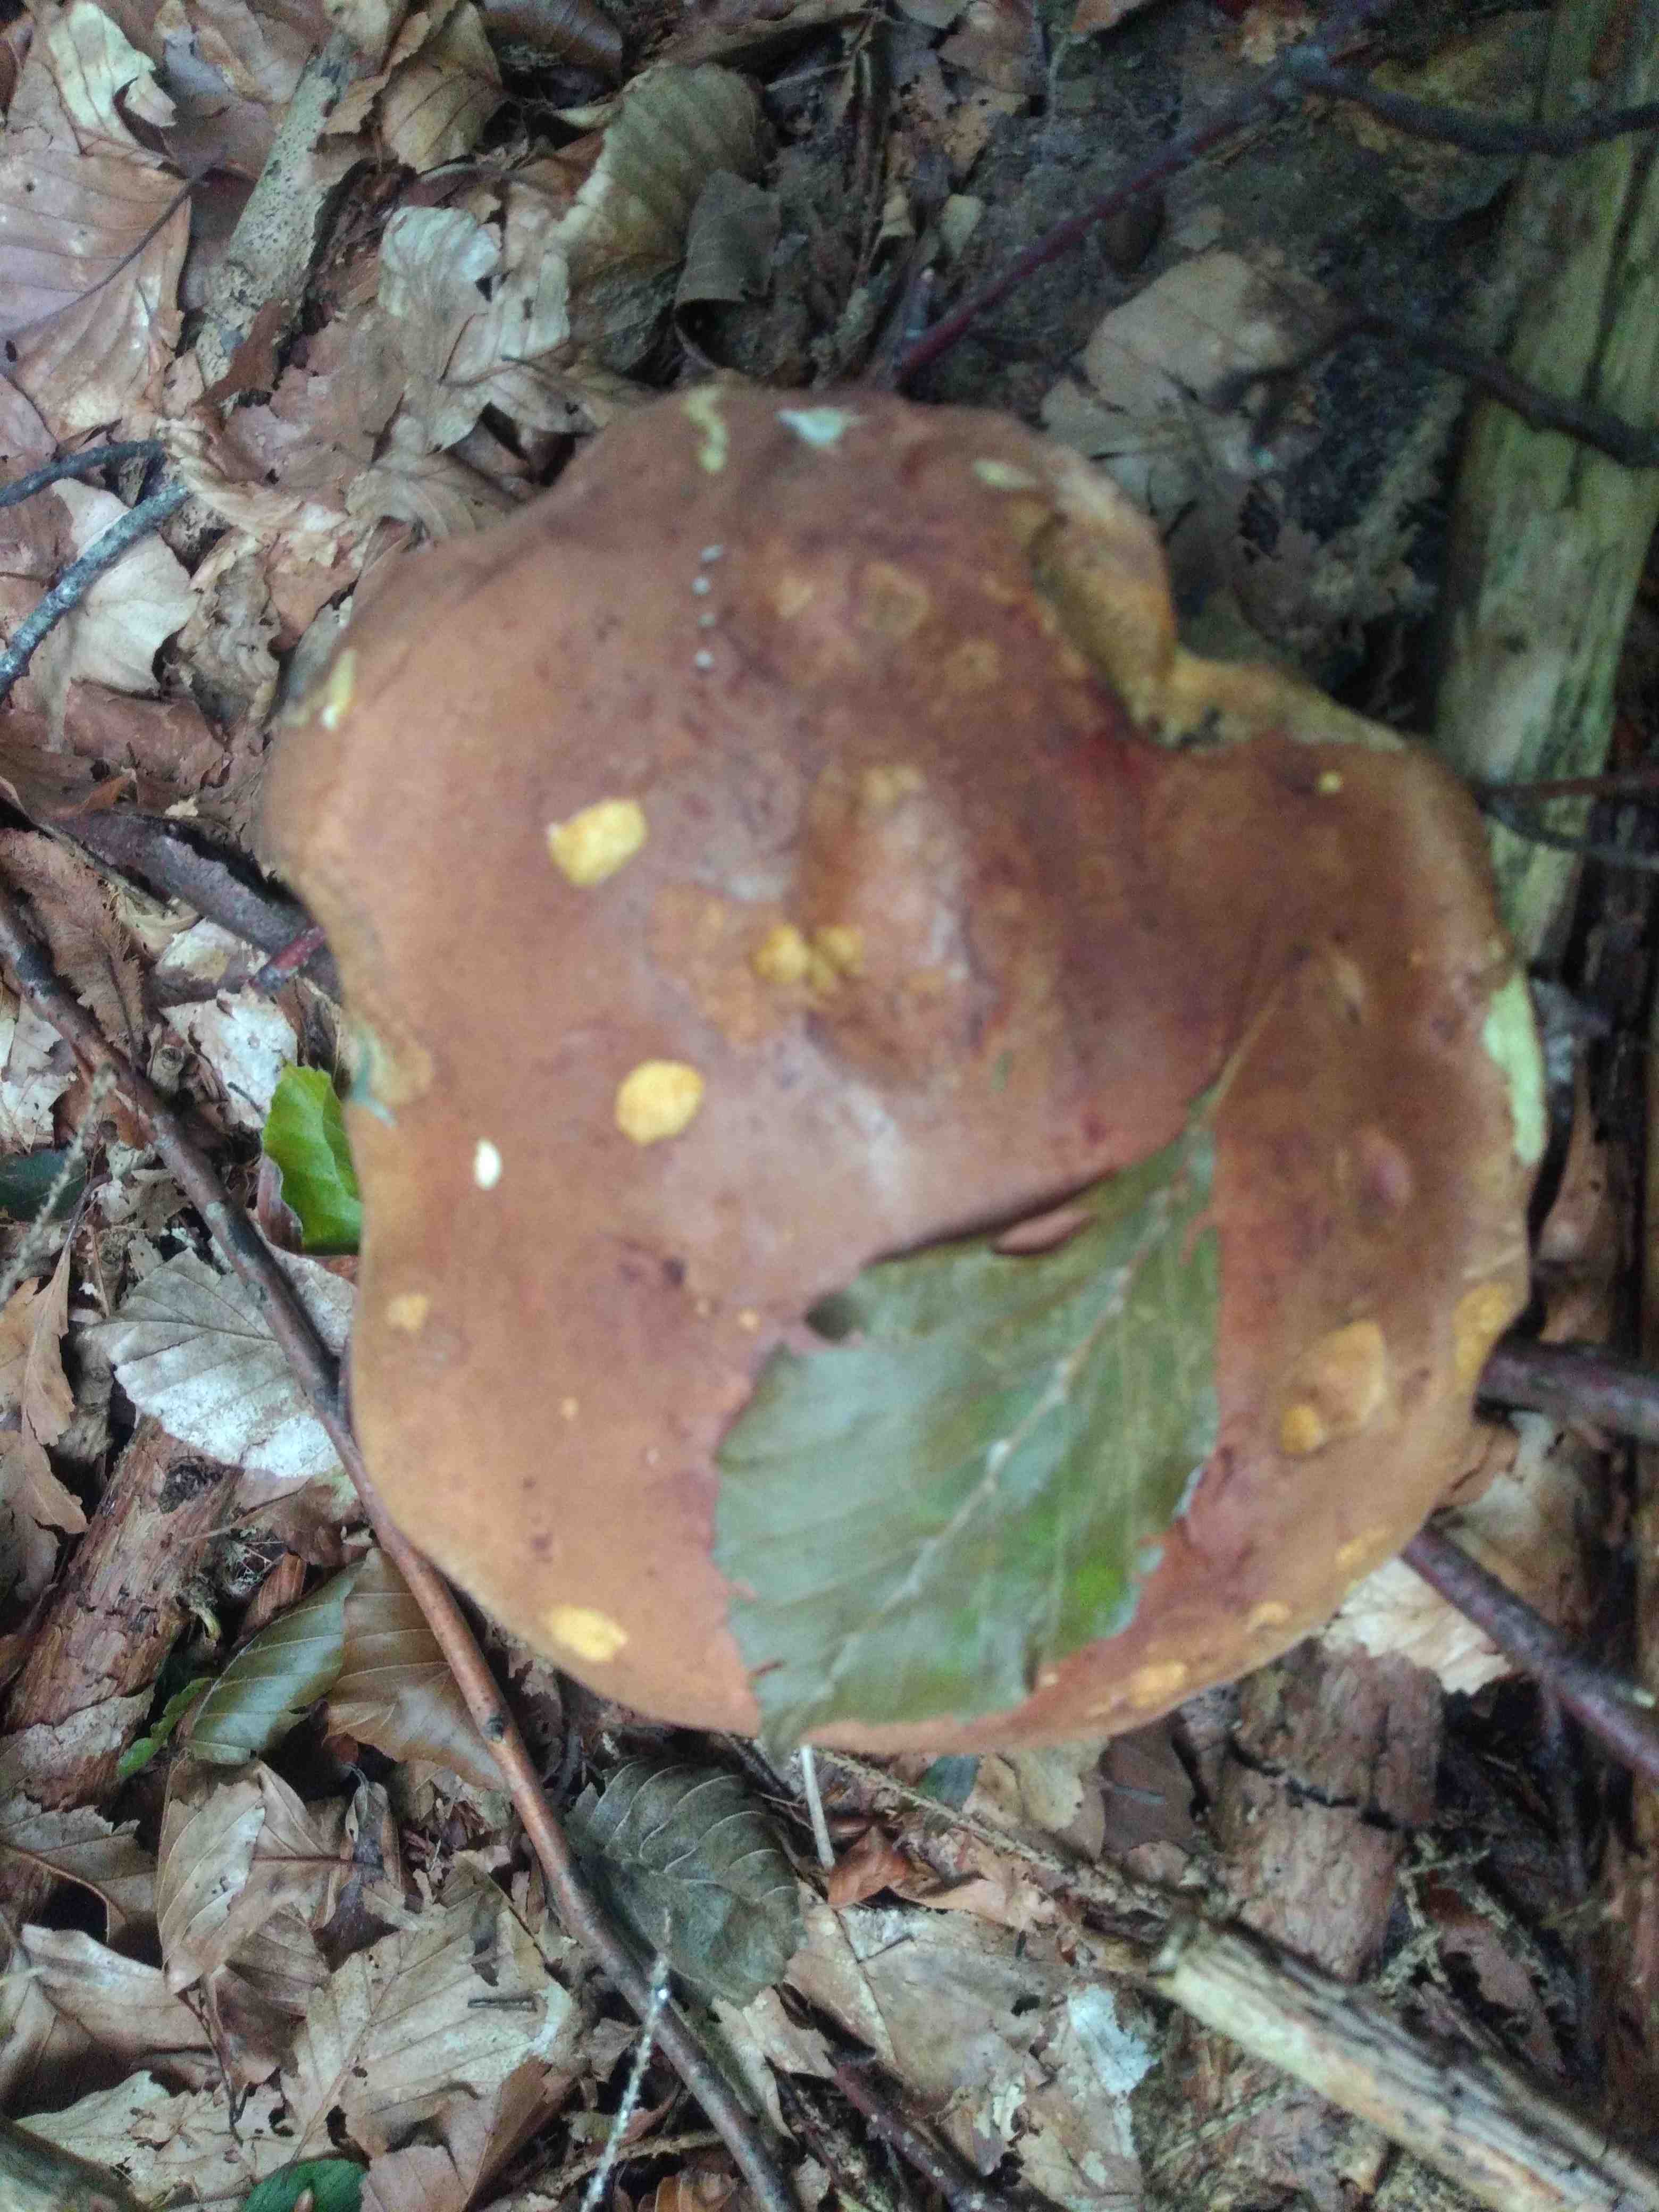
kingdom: Fungi
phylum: Basidiomycota
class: Agaricomycetes
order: Boletales
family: Boletaceae
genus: Imleria
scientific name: Imleria badia
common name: brunstokket rørhat
